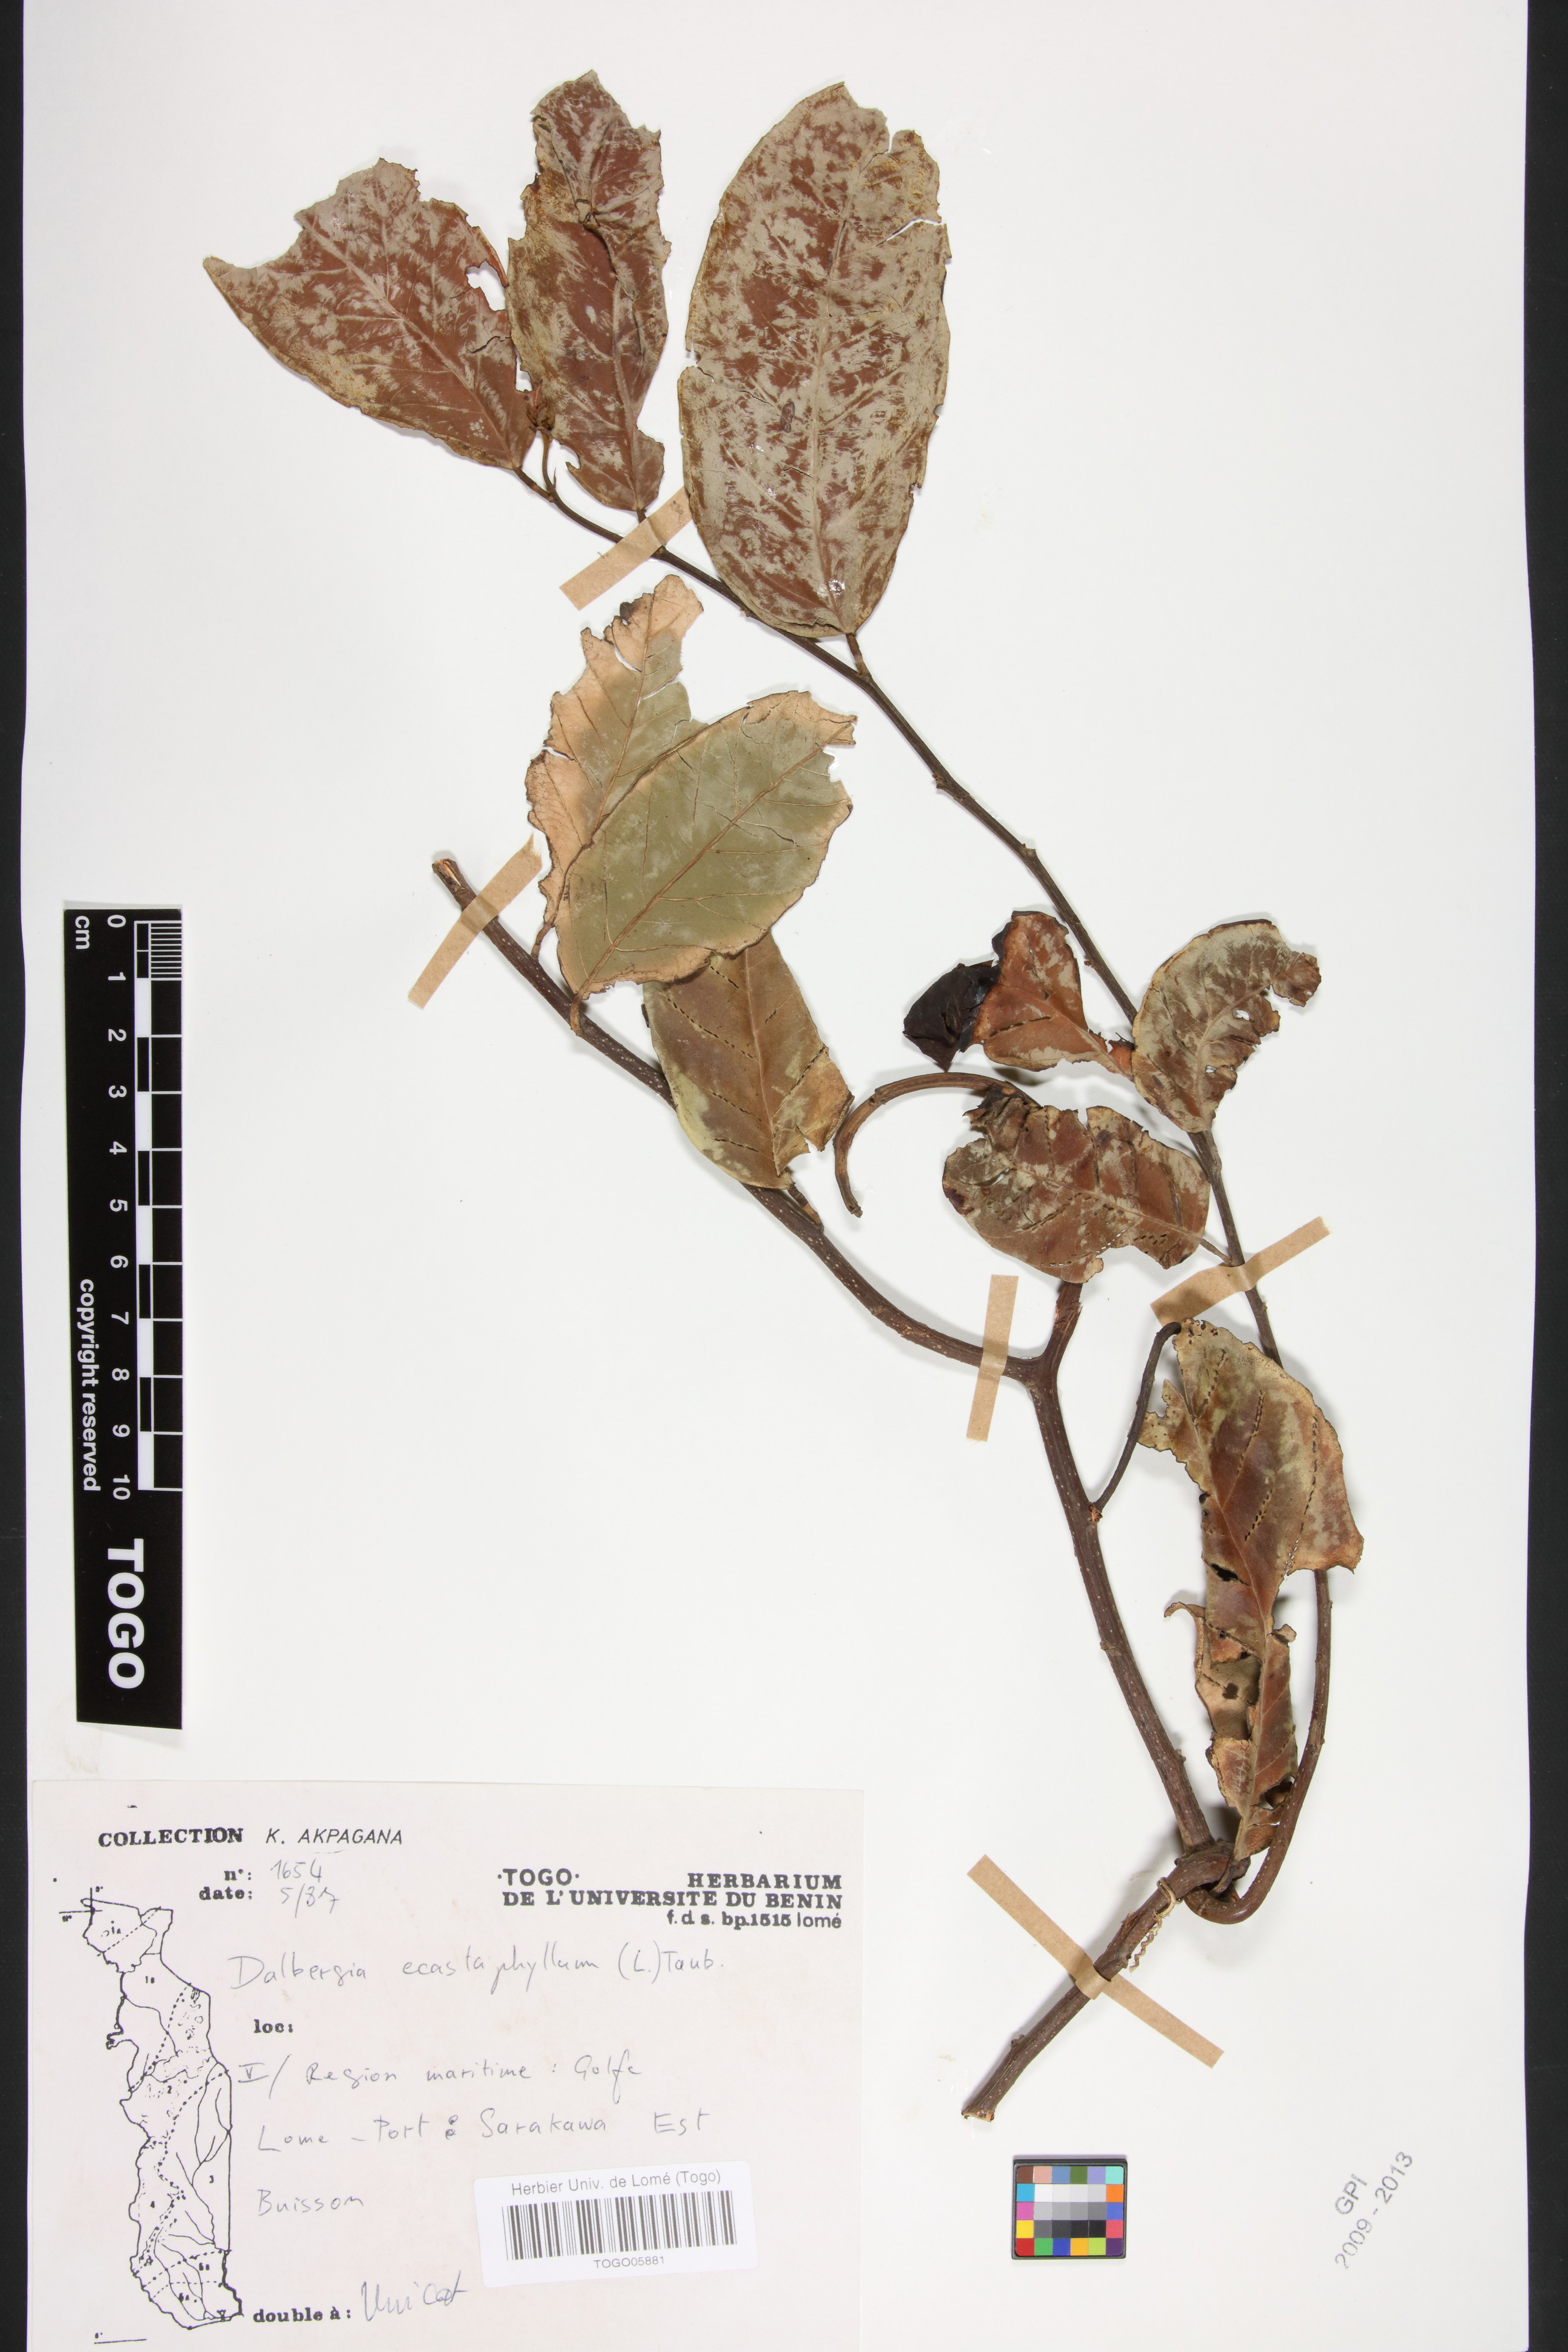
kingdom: Plantae
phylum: Tracheophyta
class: Magnoliopsida
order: Fabales
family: Fabaceae
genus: Dalbergia
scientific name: Dalbergia ecastaphyllum
